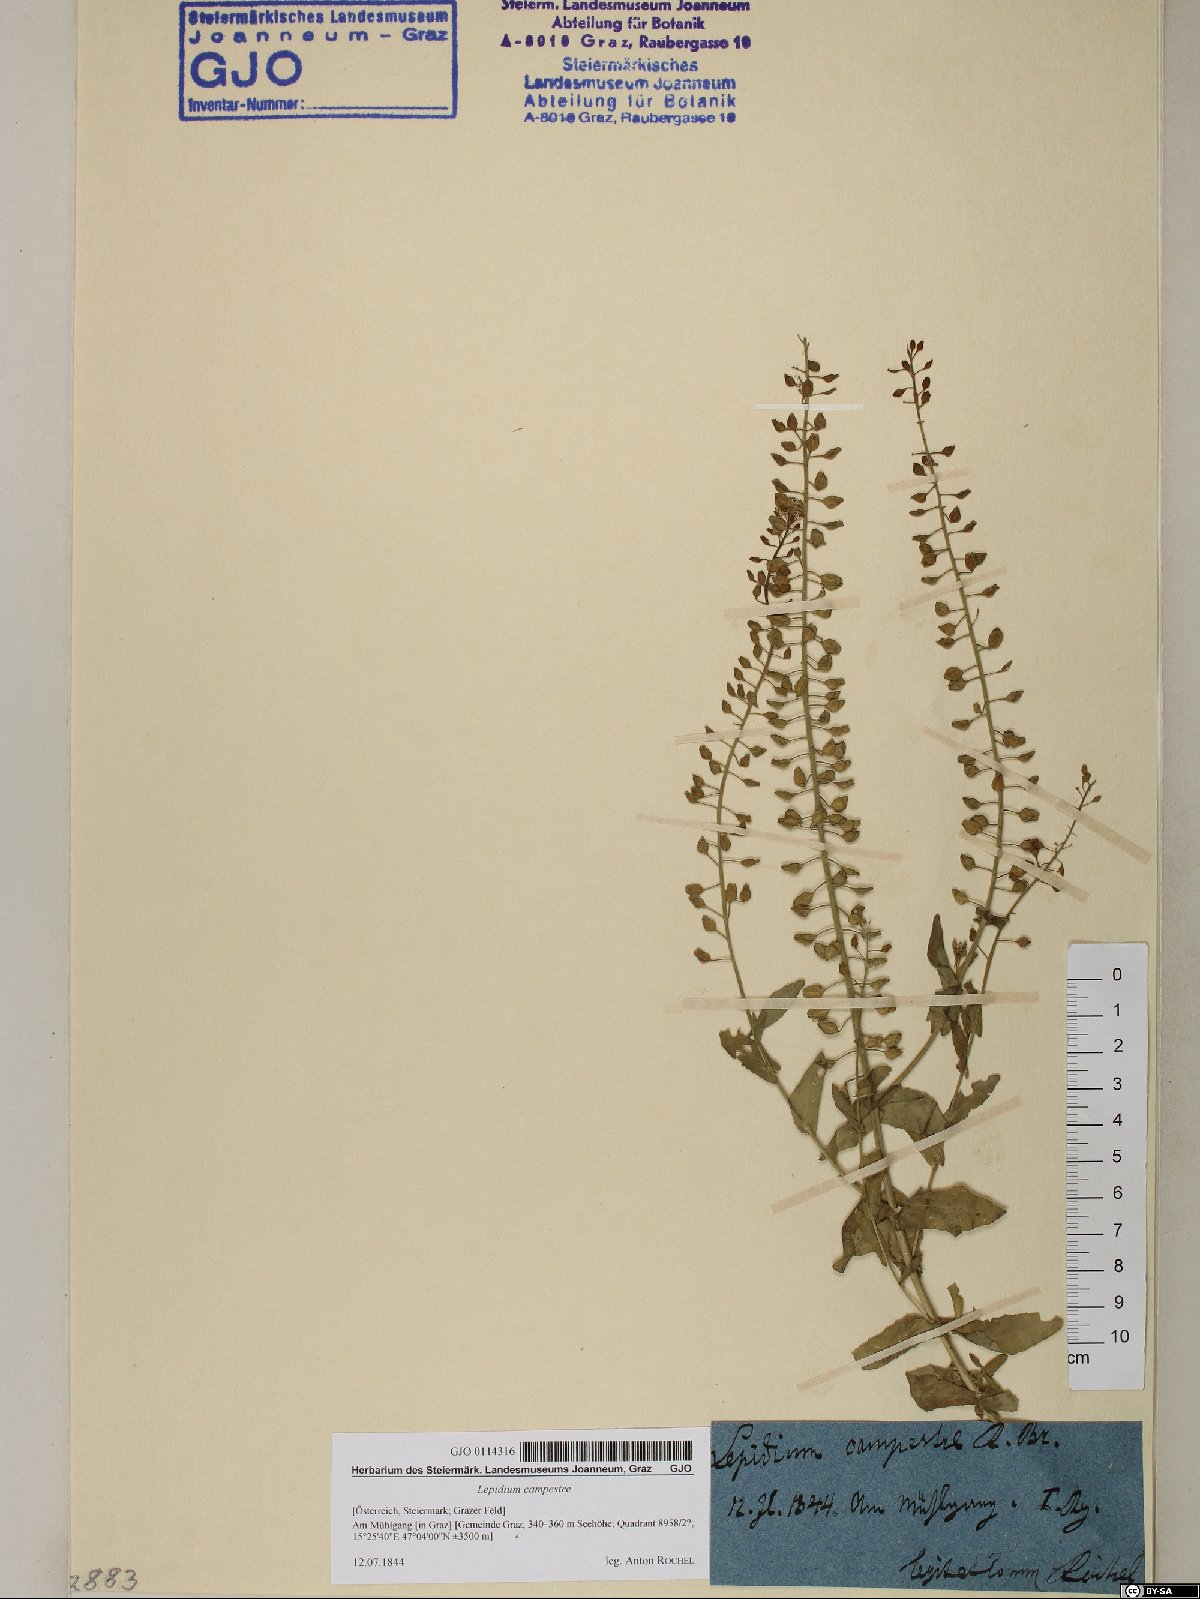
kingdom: Plantae
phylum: Tracheophyta
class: Magnoliopsida
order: Brassicales
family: Brassicaceae
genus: Lepidium
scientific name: Lepidium campestre
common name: Field pepperwort
